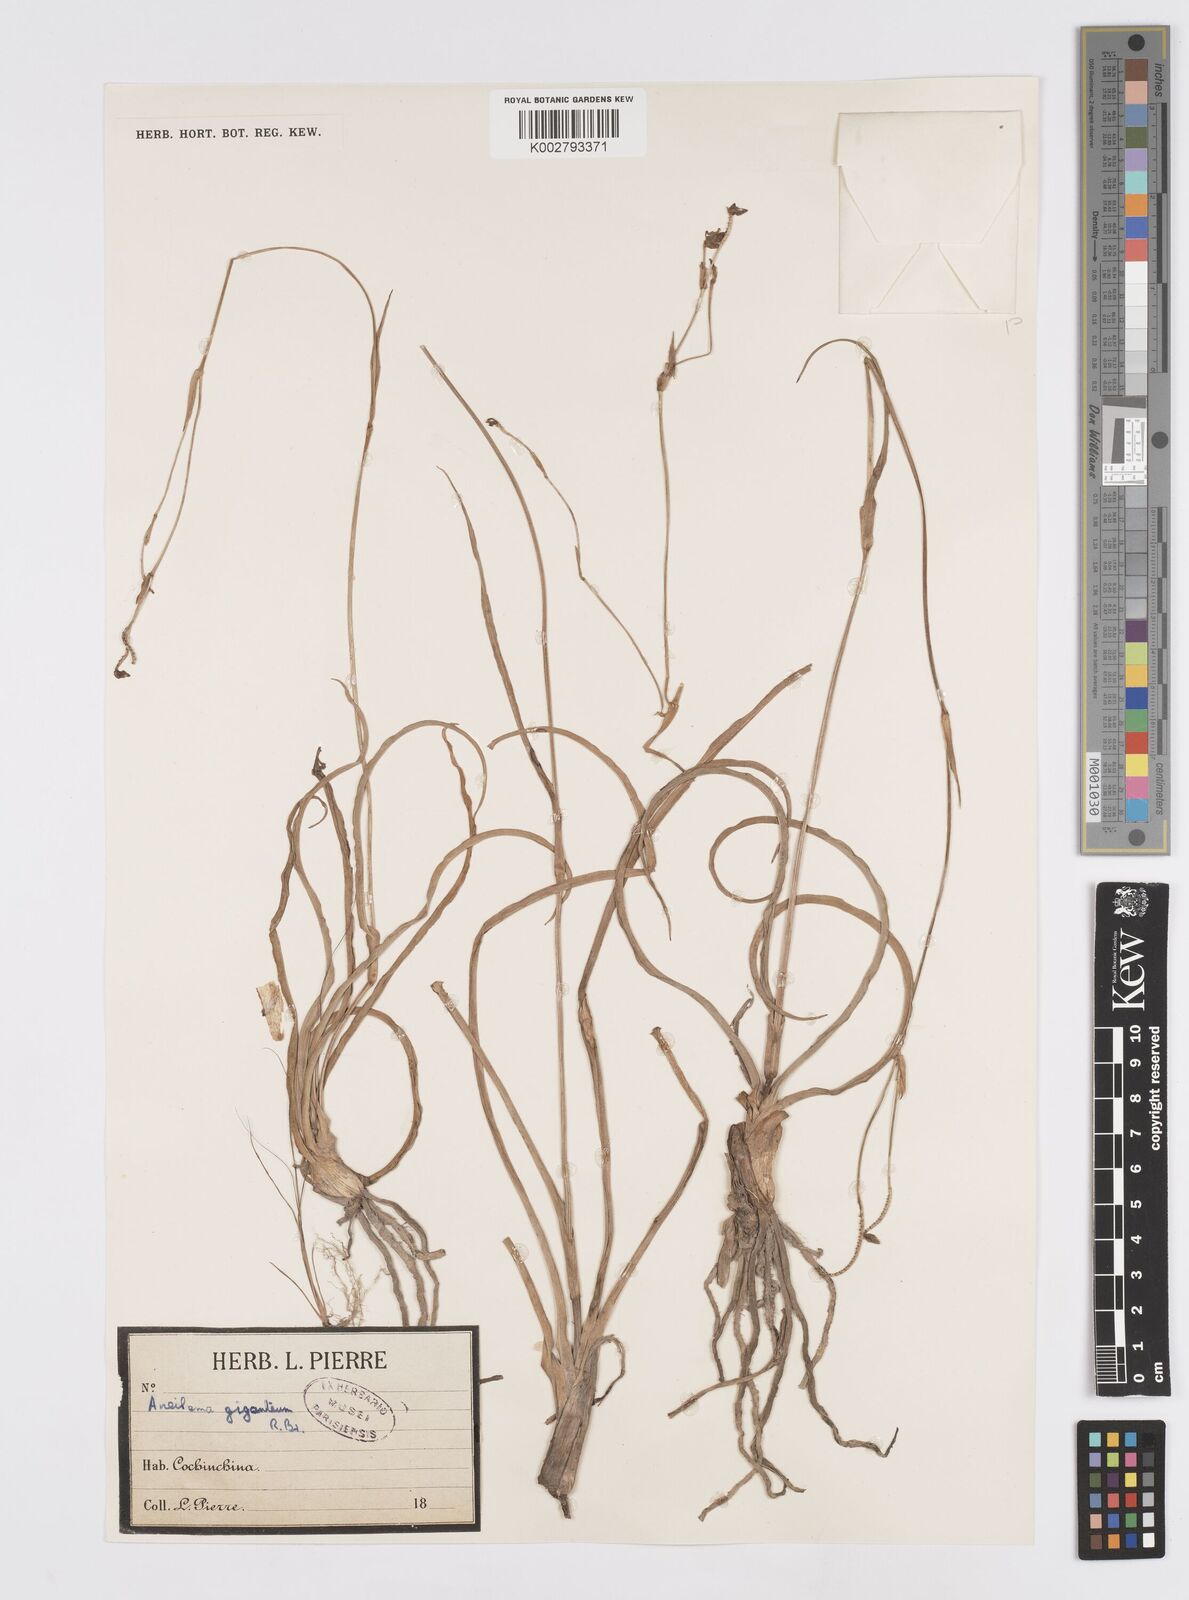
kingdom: Plantae
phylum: Tracheophyta
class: Liliopsida
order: Commelinales
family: Commelinaceae
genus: Murdannia
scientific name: Murdannia gigantea
